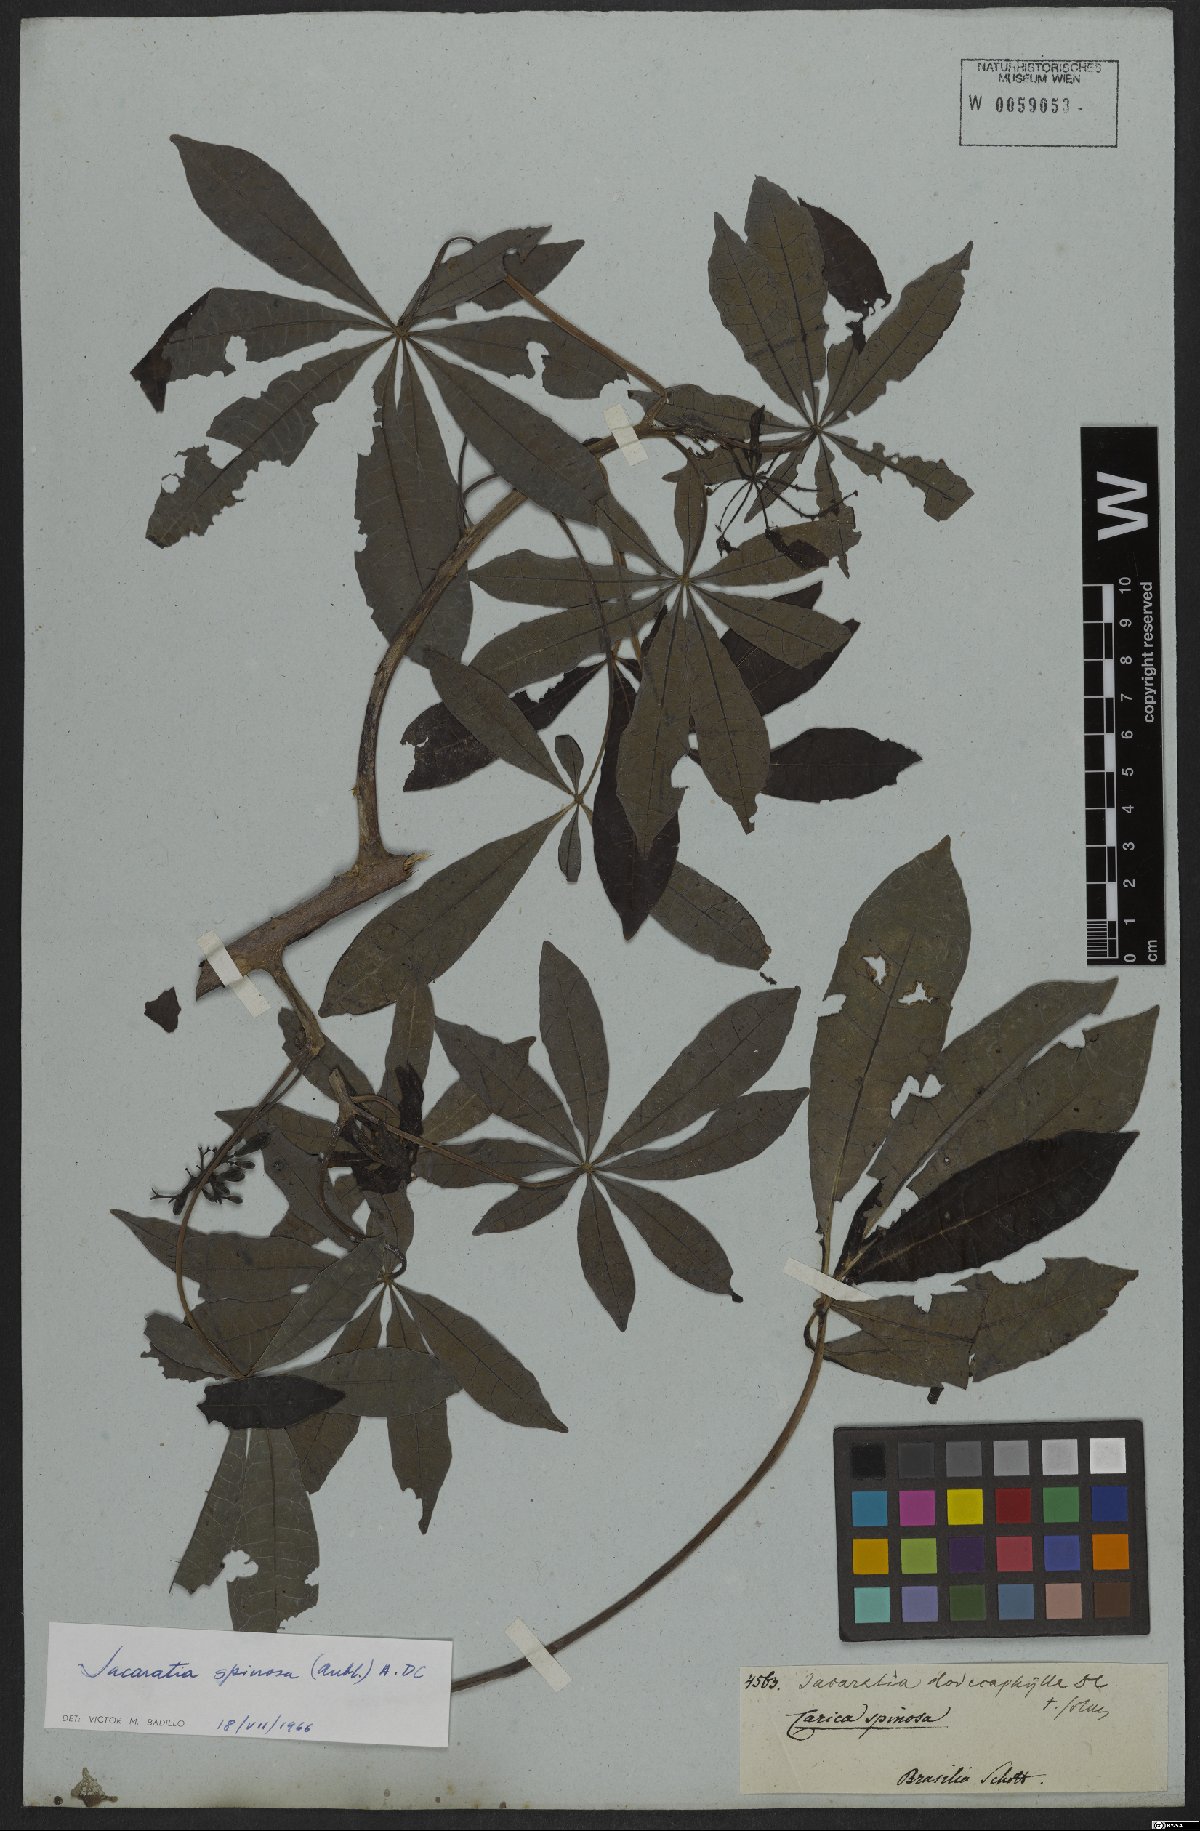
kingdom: Plantae
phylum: Tracheophyta
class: Magnoliopsida
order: Brassicales
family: Caricaceae
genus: Jacaratia
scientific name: Jacaratia spinosa
